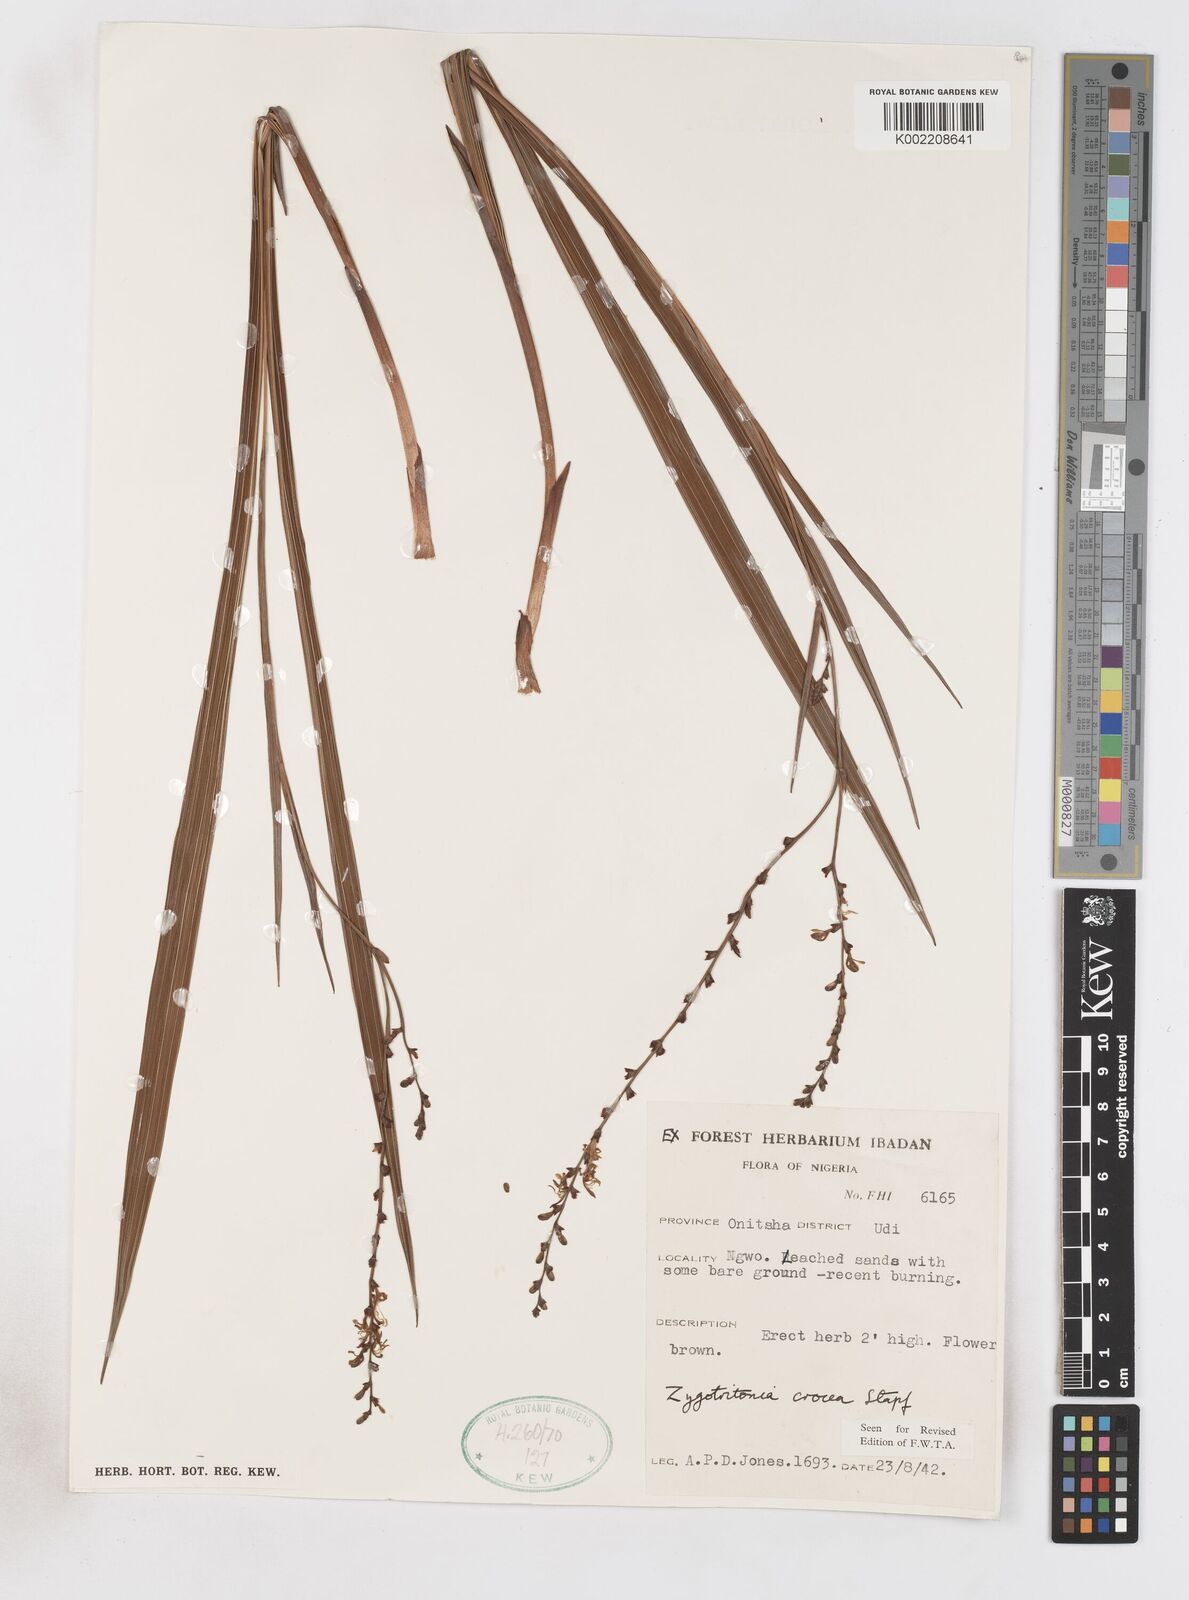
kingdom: Plantae
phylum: Tracheophyta
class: Liliopsida
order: Asparagales
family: Iridaceae
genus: Savannosiphon
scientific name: Savannosiphon
